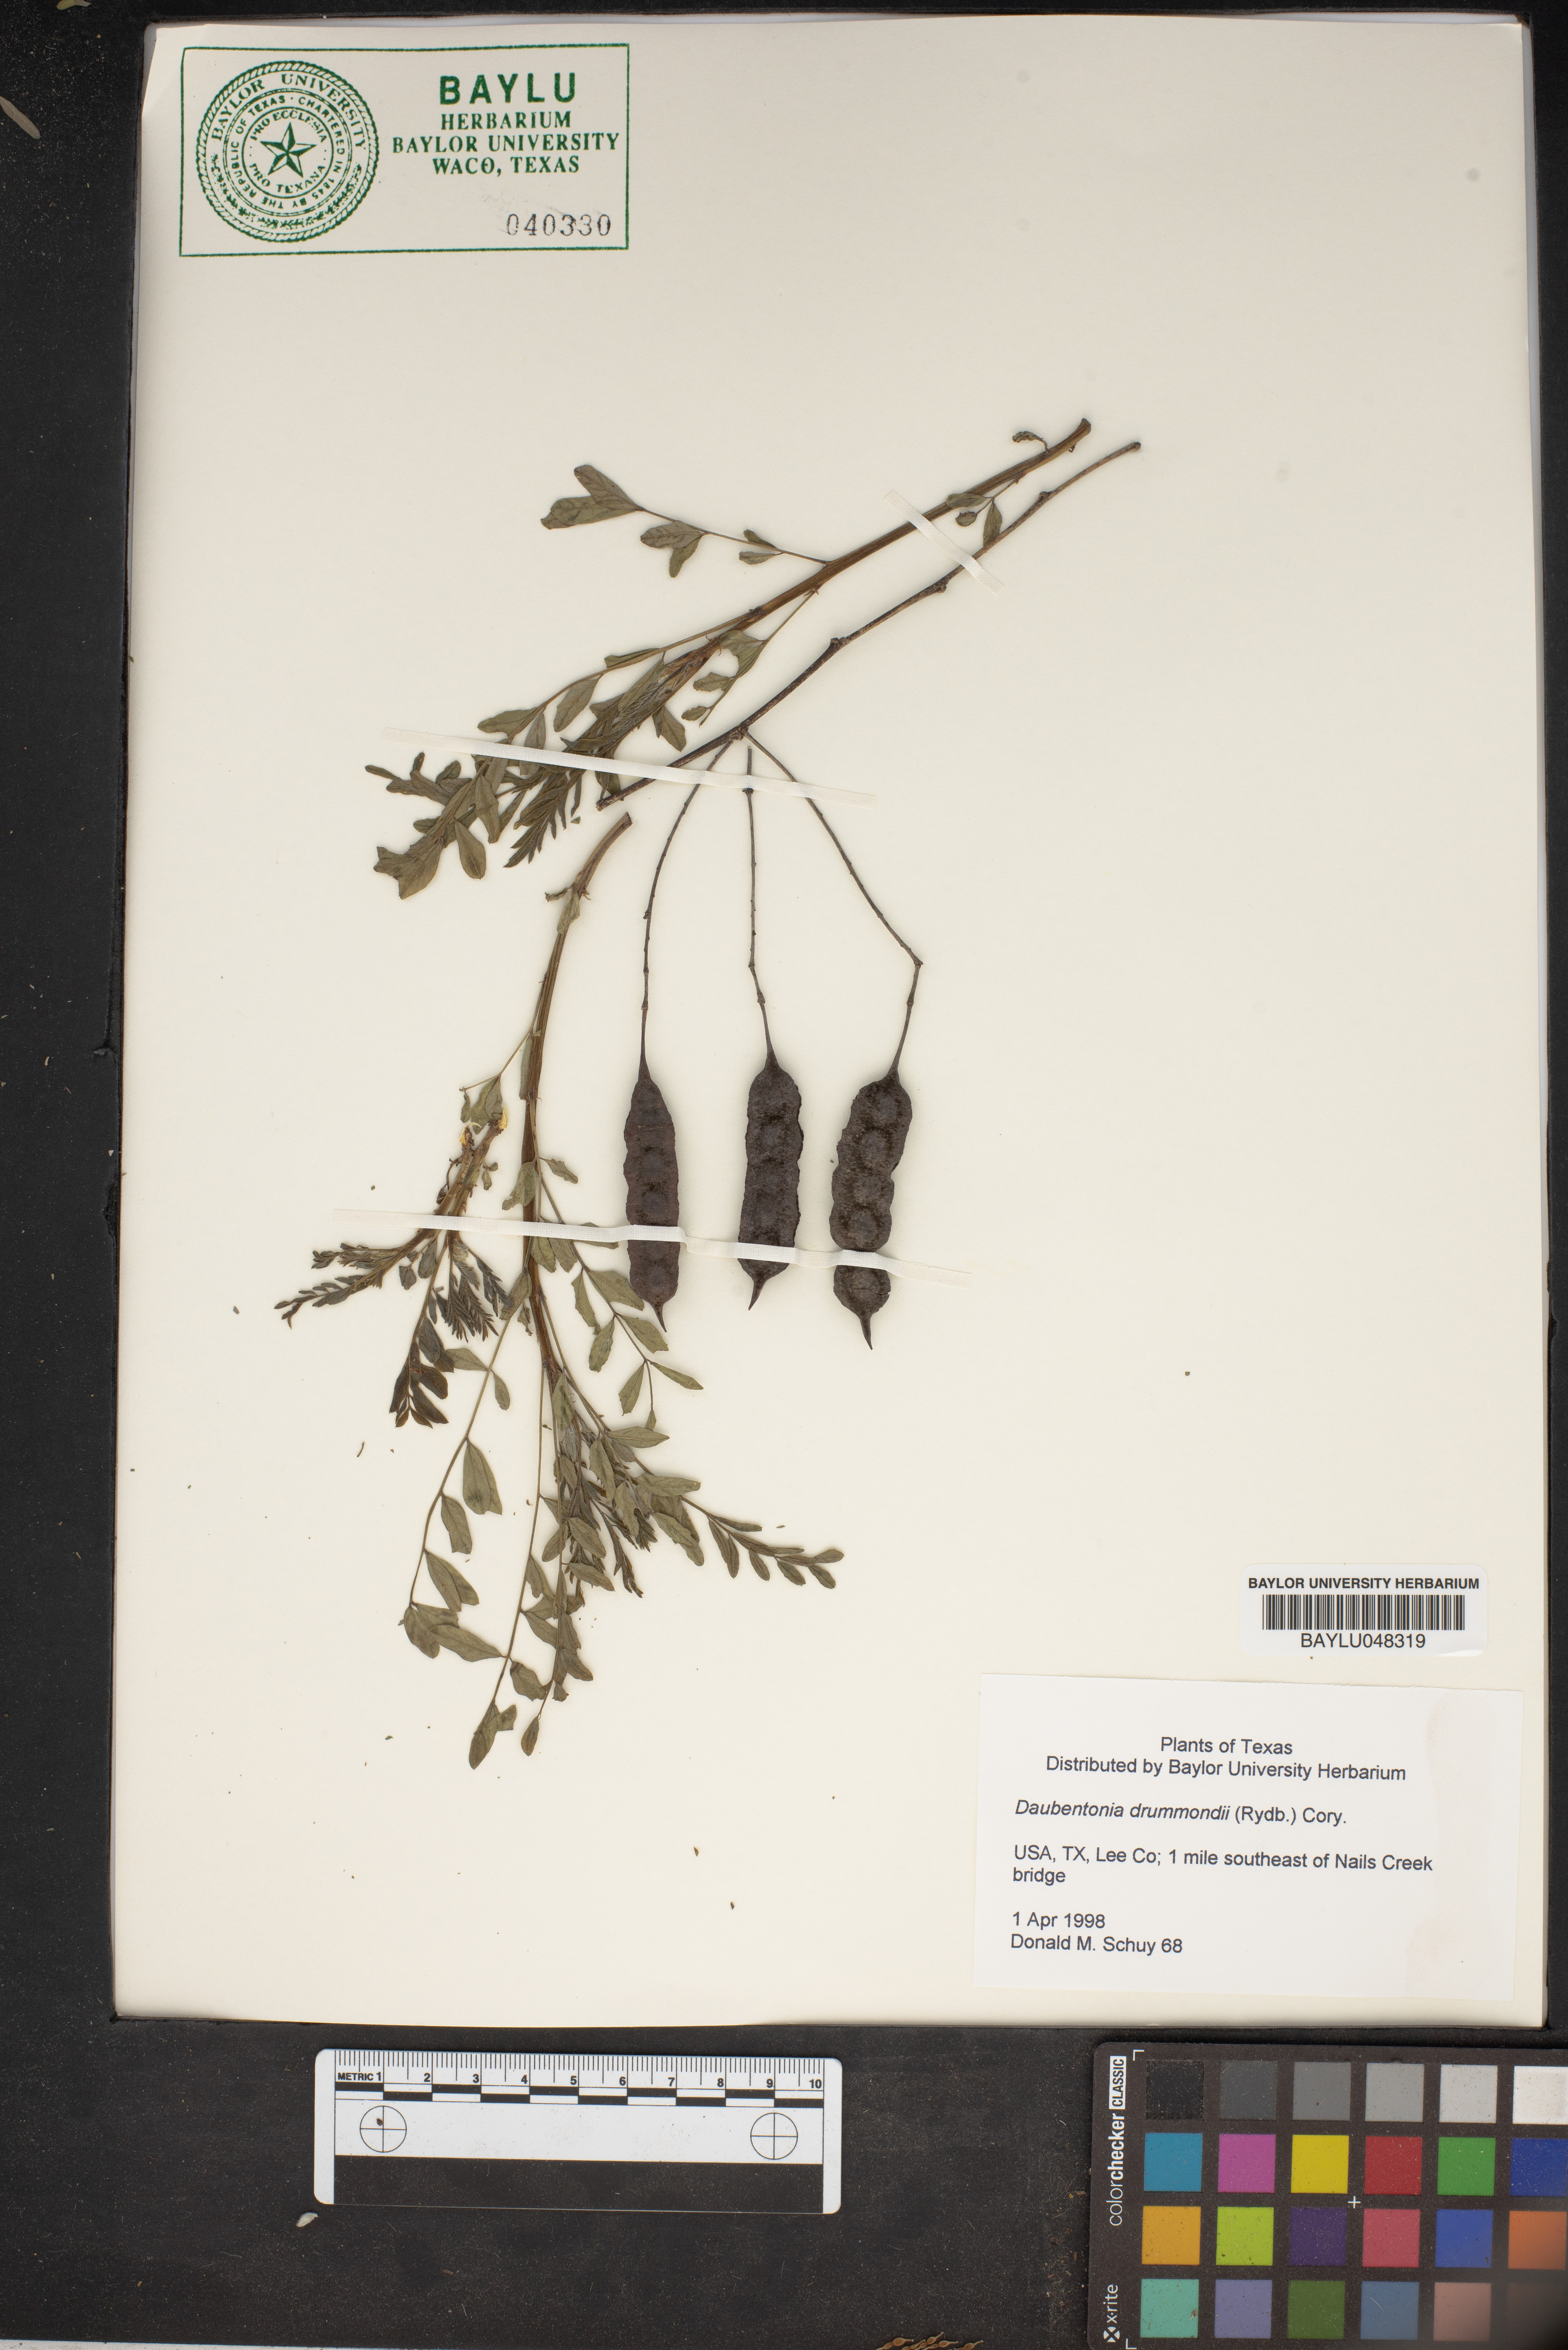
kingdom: Plantae
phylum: Tracheophyta
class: Magnoliopsida
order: Fabales
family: Fabaceae
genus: Sesbania
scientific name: Sesbania drummondii
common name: Poison-bean
